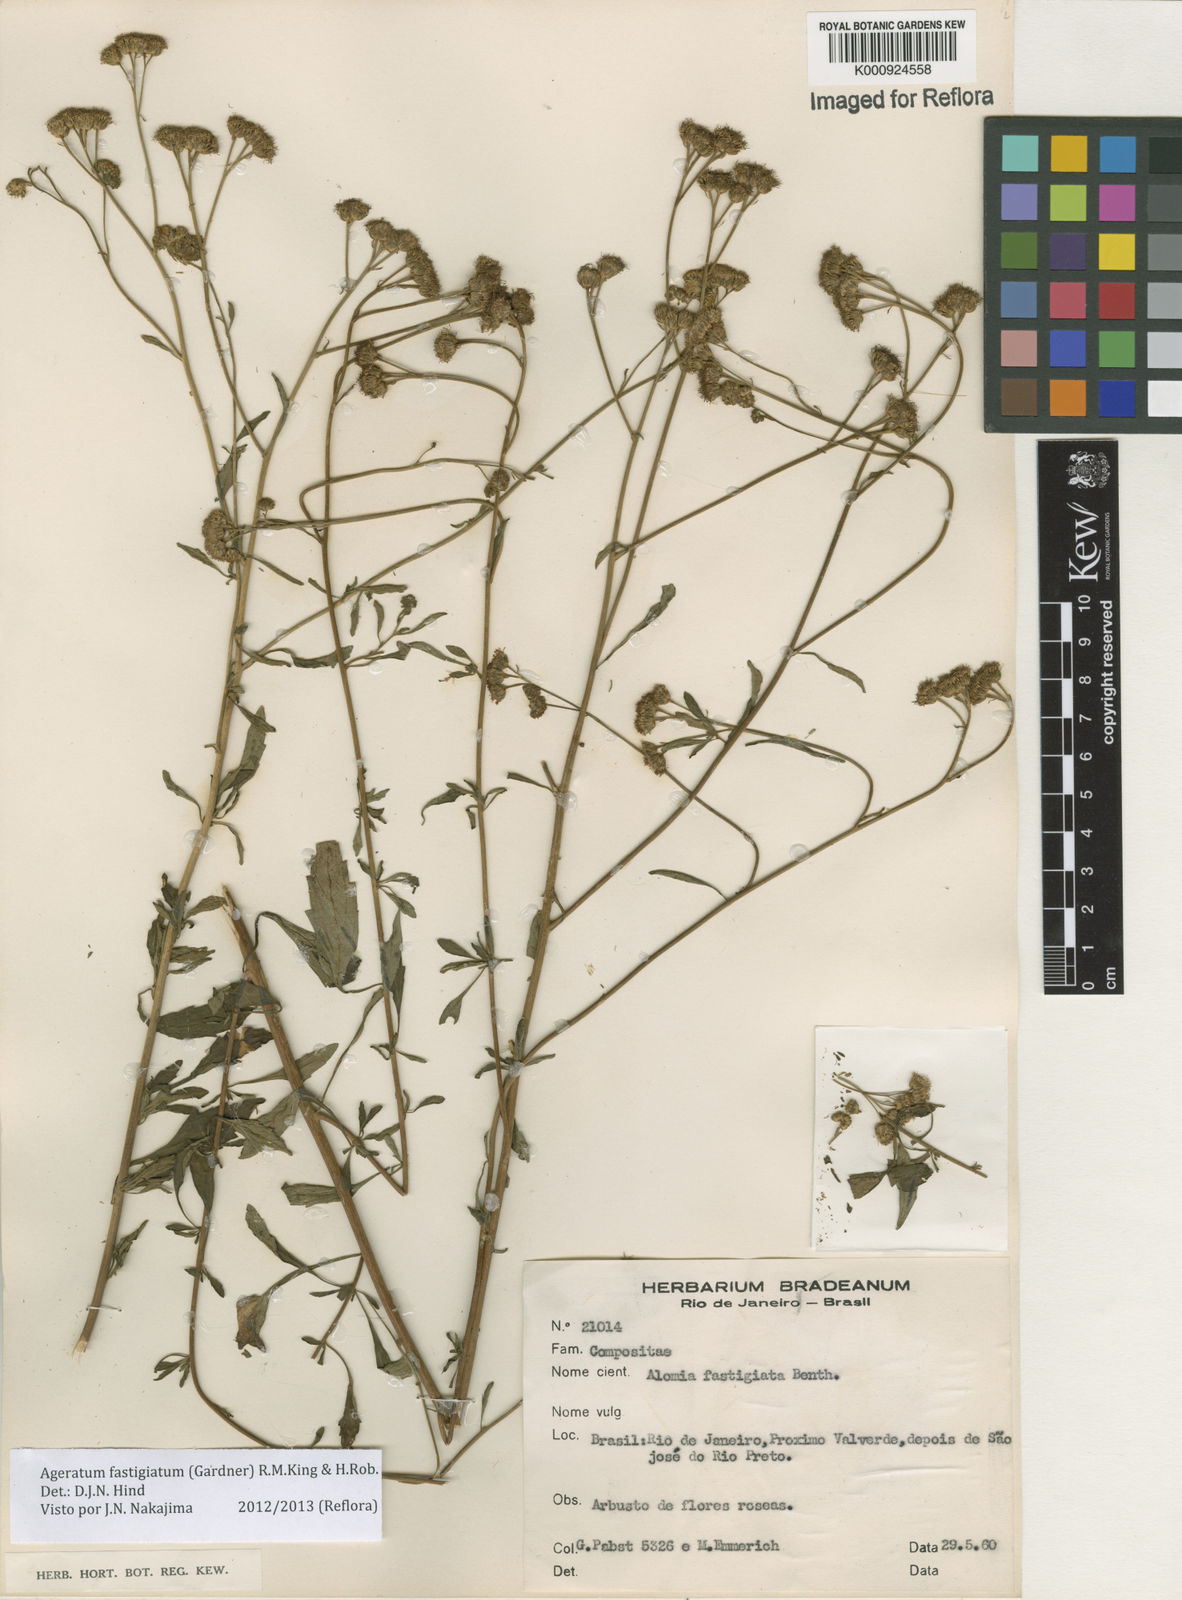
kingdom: Plantae
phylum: Tracheophyta
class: Magnoliopsida
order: Asterales
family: Asteraceae
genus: Ageratum
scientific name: Ageratum fastigiatum
